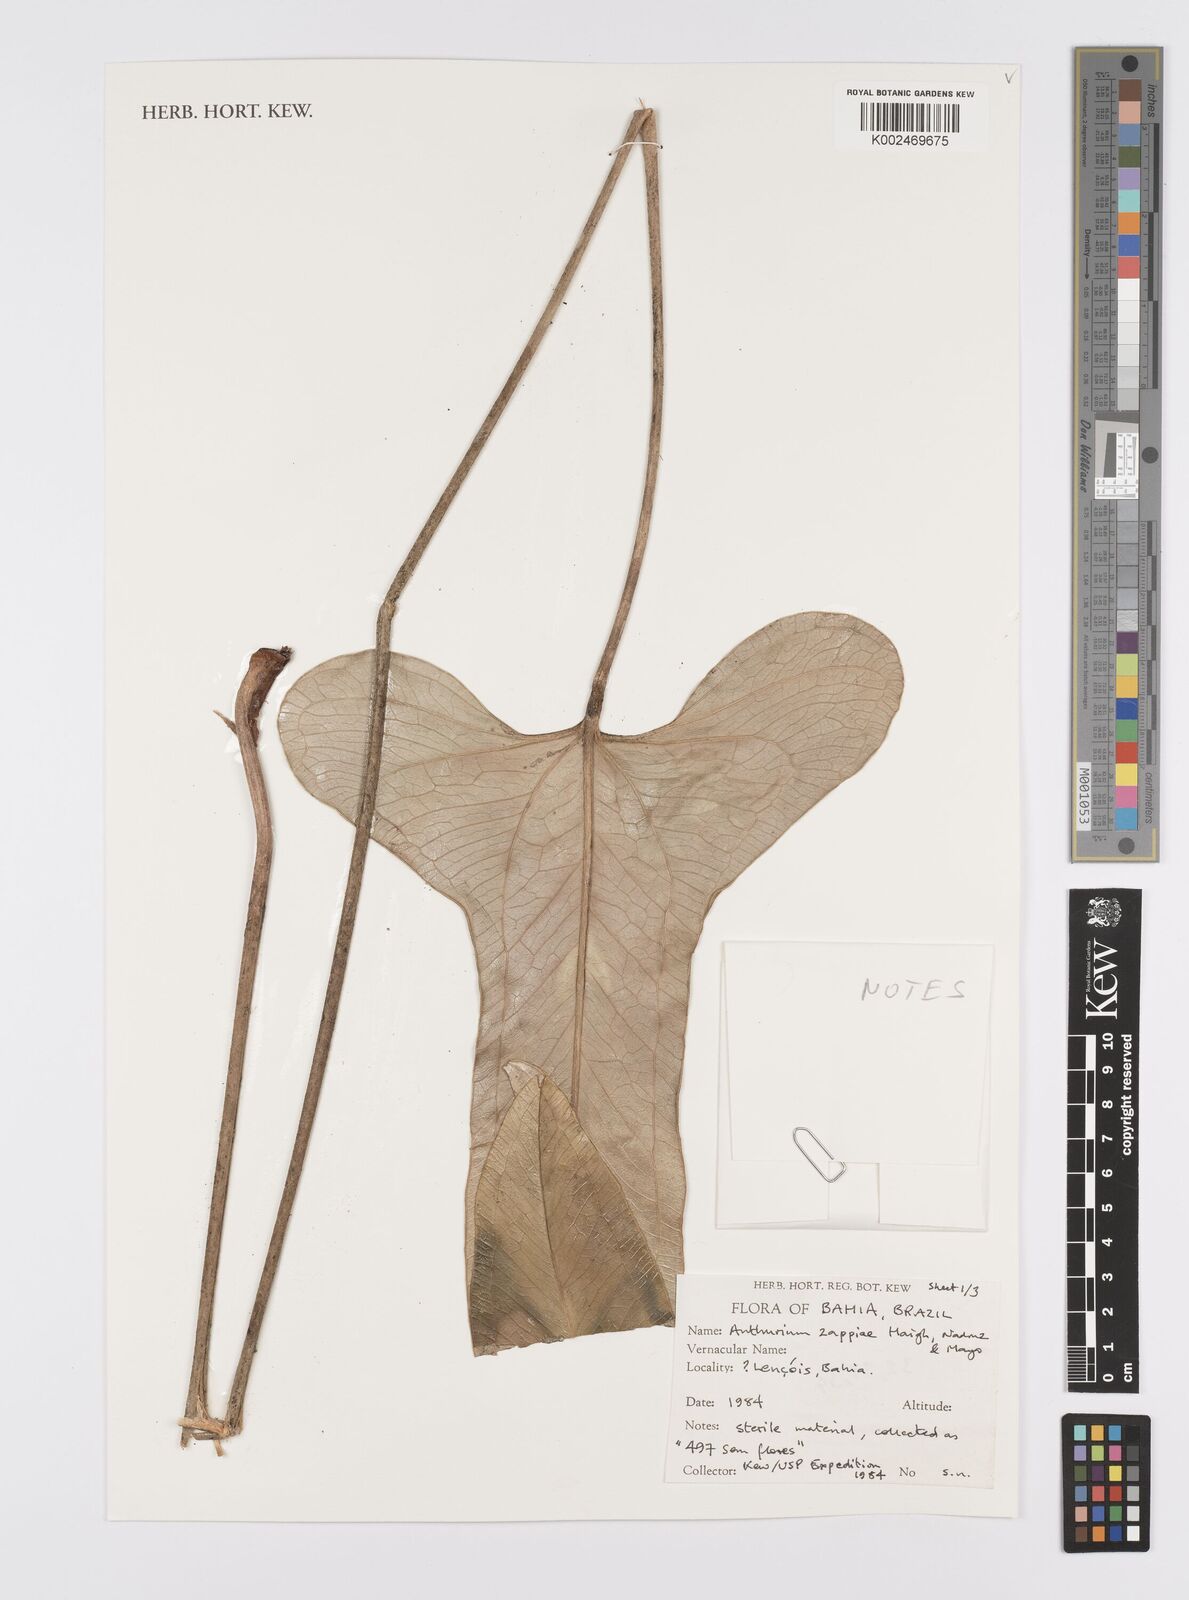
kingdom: Plantae
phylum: Tracheophyta
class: Liliopsida
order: Alismatales
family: Araceae
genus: Anthurium
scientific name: Anthurium zappiae
